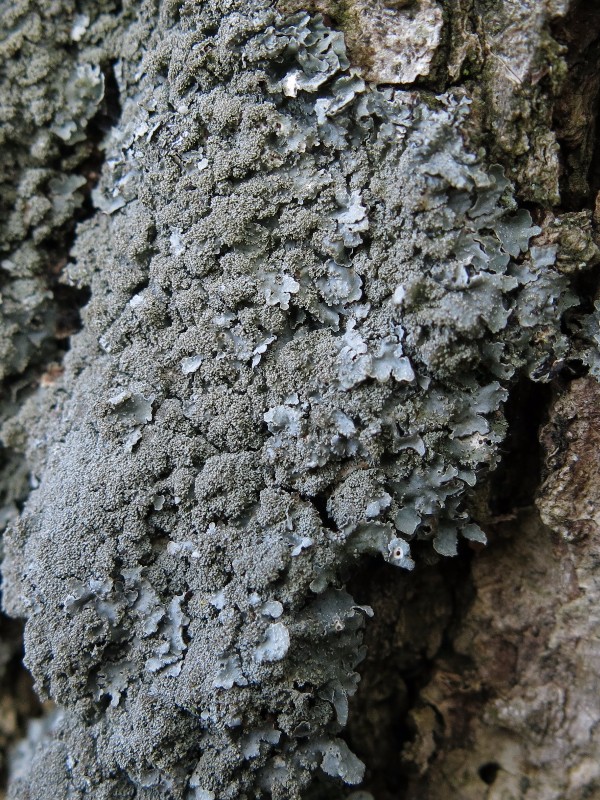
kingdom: Fungi
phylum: Ascomycota
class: Lecanoromycetes
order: Lecanorales
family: Parmeliaceae
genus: Parmelia
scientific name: Parmelia serrana
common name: spansk skållav
